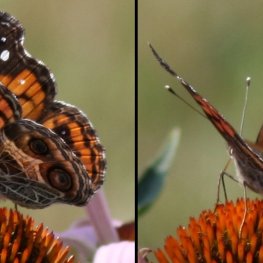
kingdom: Animalia
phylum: Arthropoda
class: Insecta
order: Lepidoptera
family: Nymphalidae
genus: Vanessa
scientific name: Vanessa virginiensis
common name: American Lady
